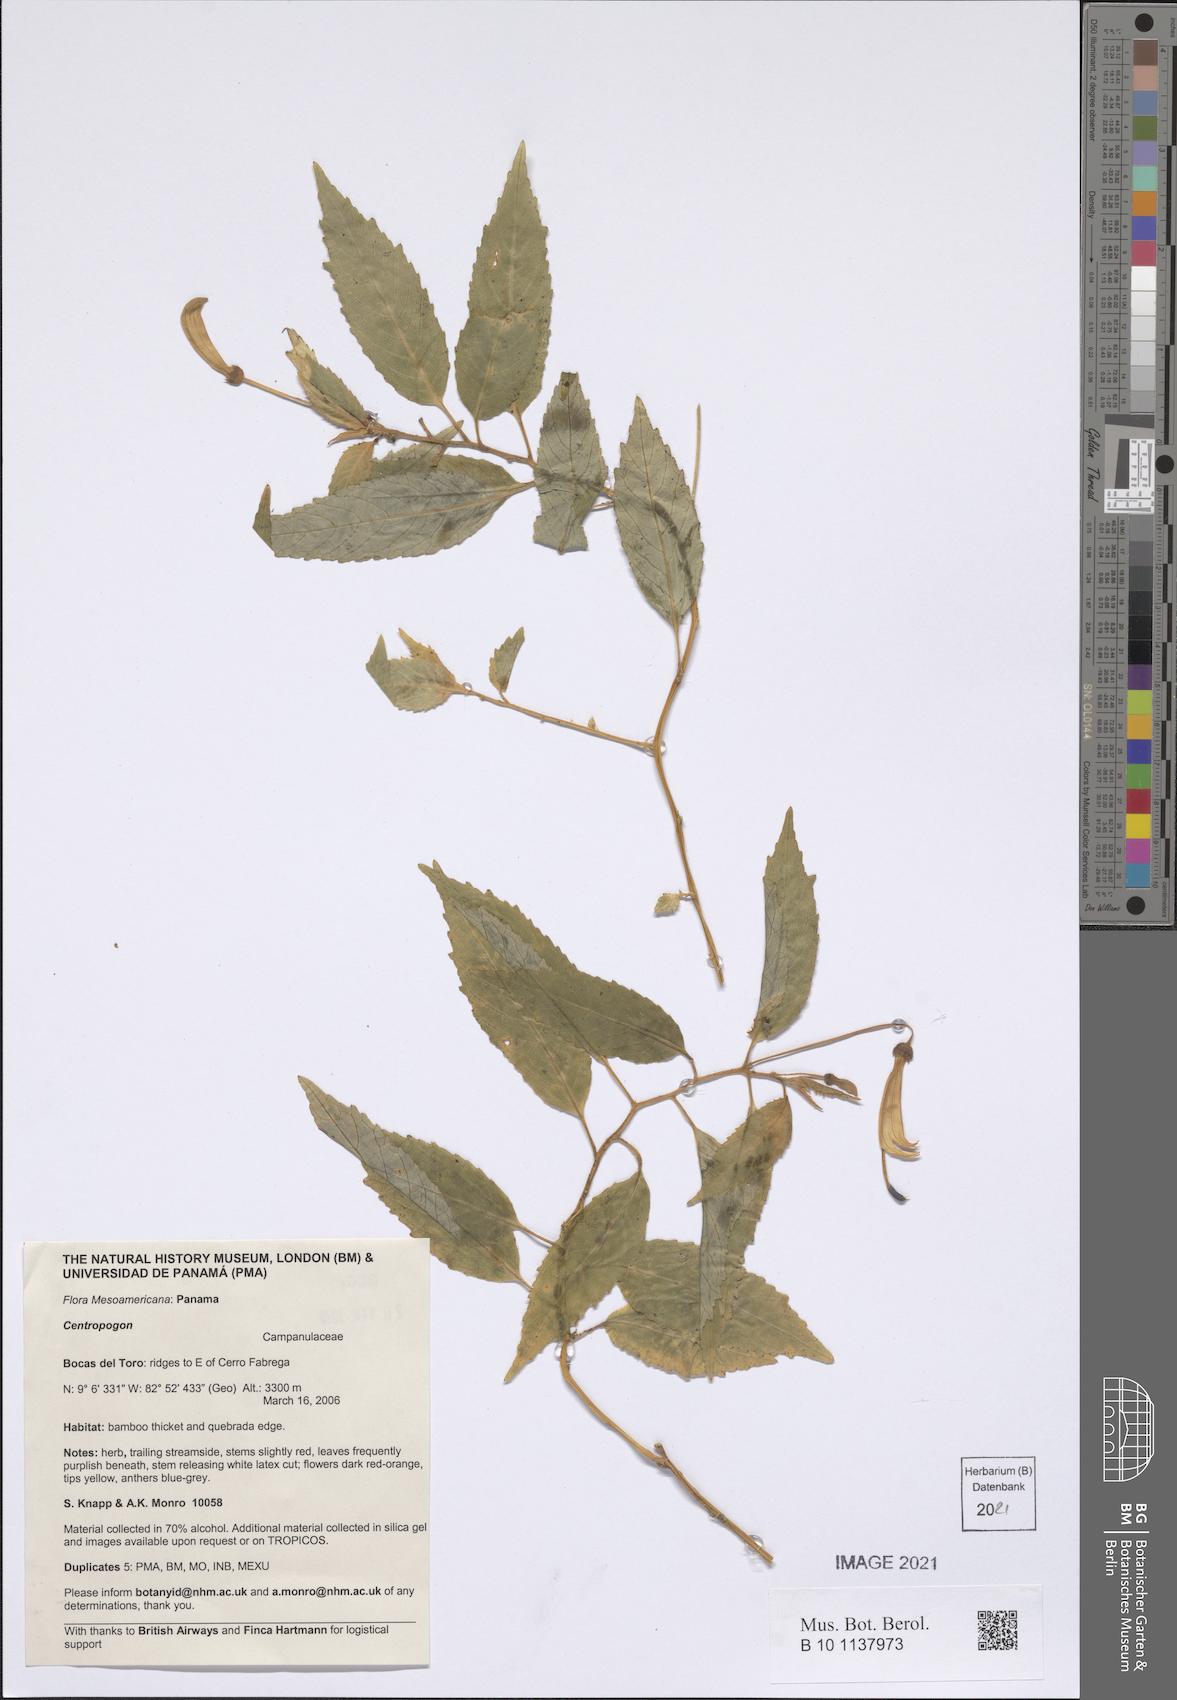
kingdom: Plantae
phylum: Tracheophyta
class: Magnoliopsida
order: Asterales
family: Campanulaceae
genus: Centropogon
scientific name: Centropogon
